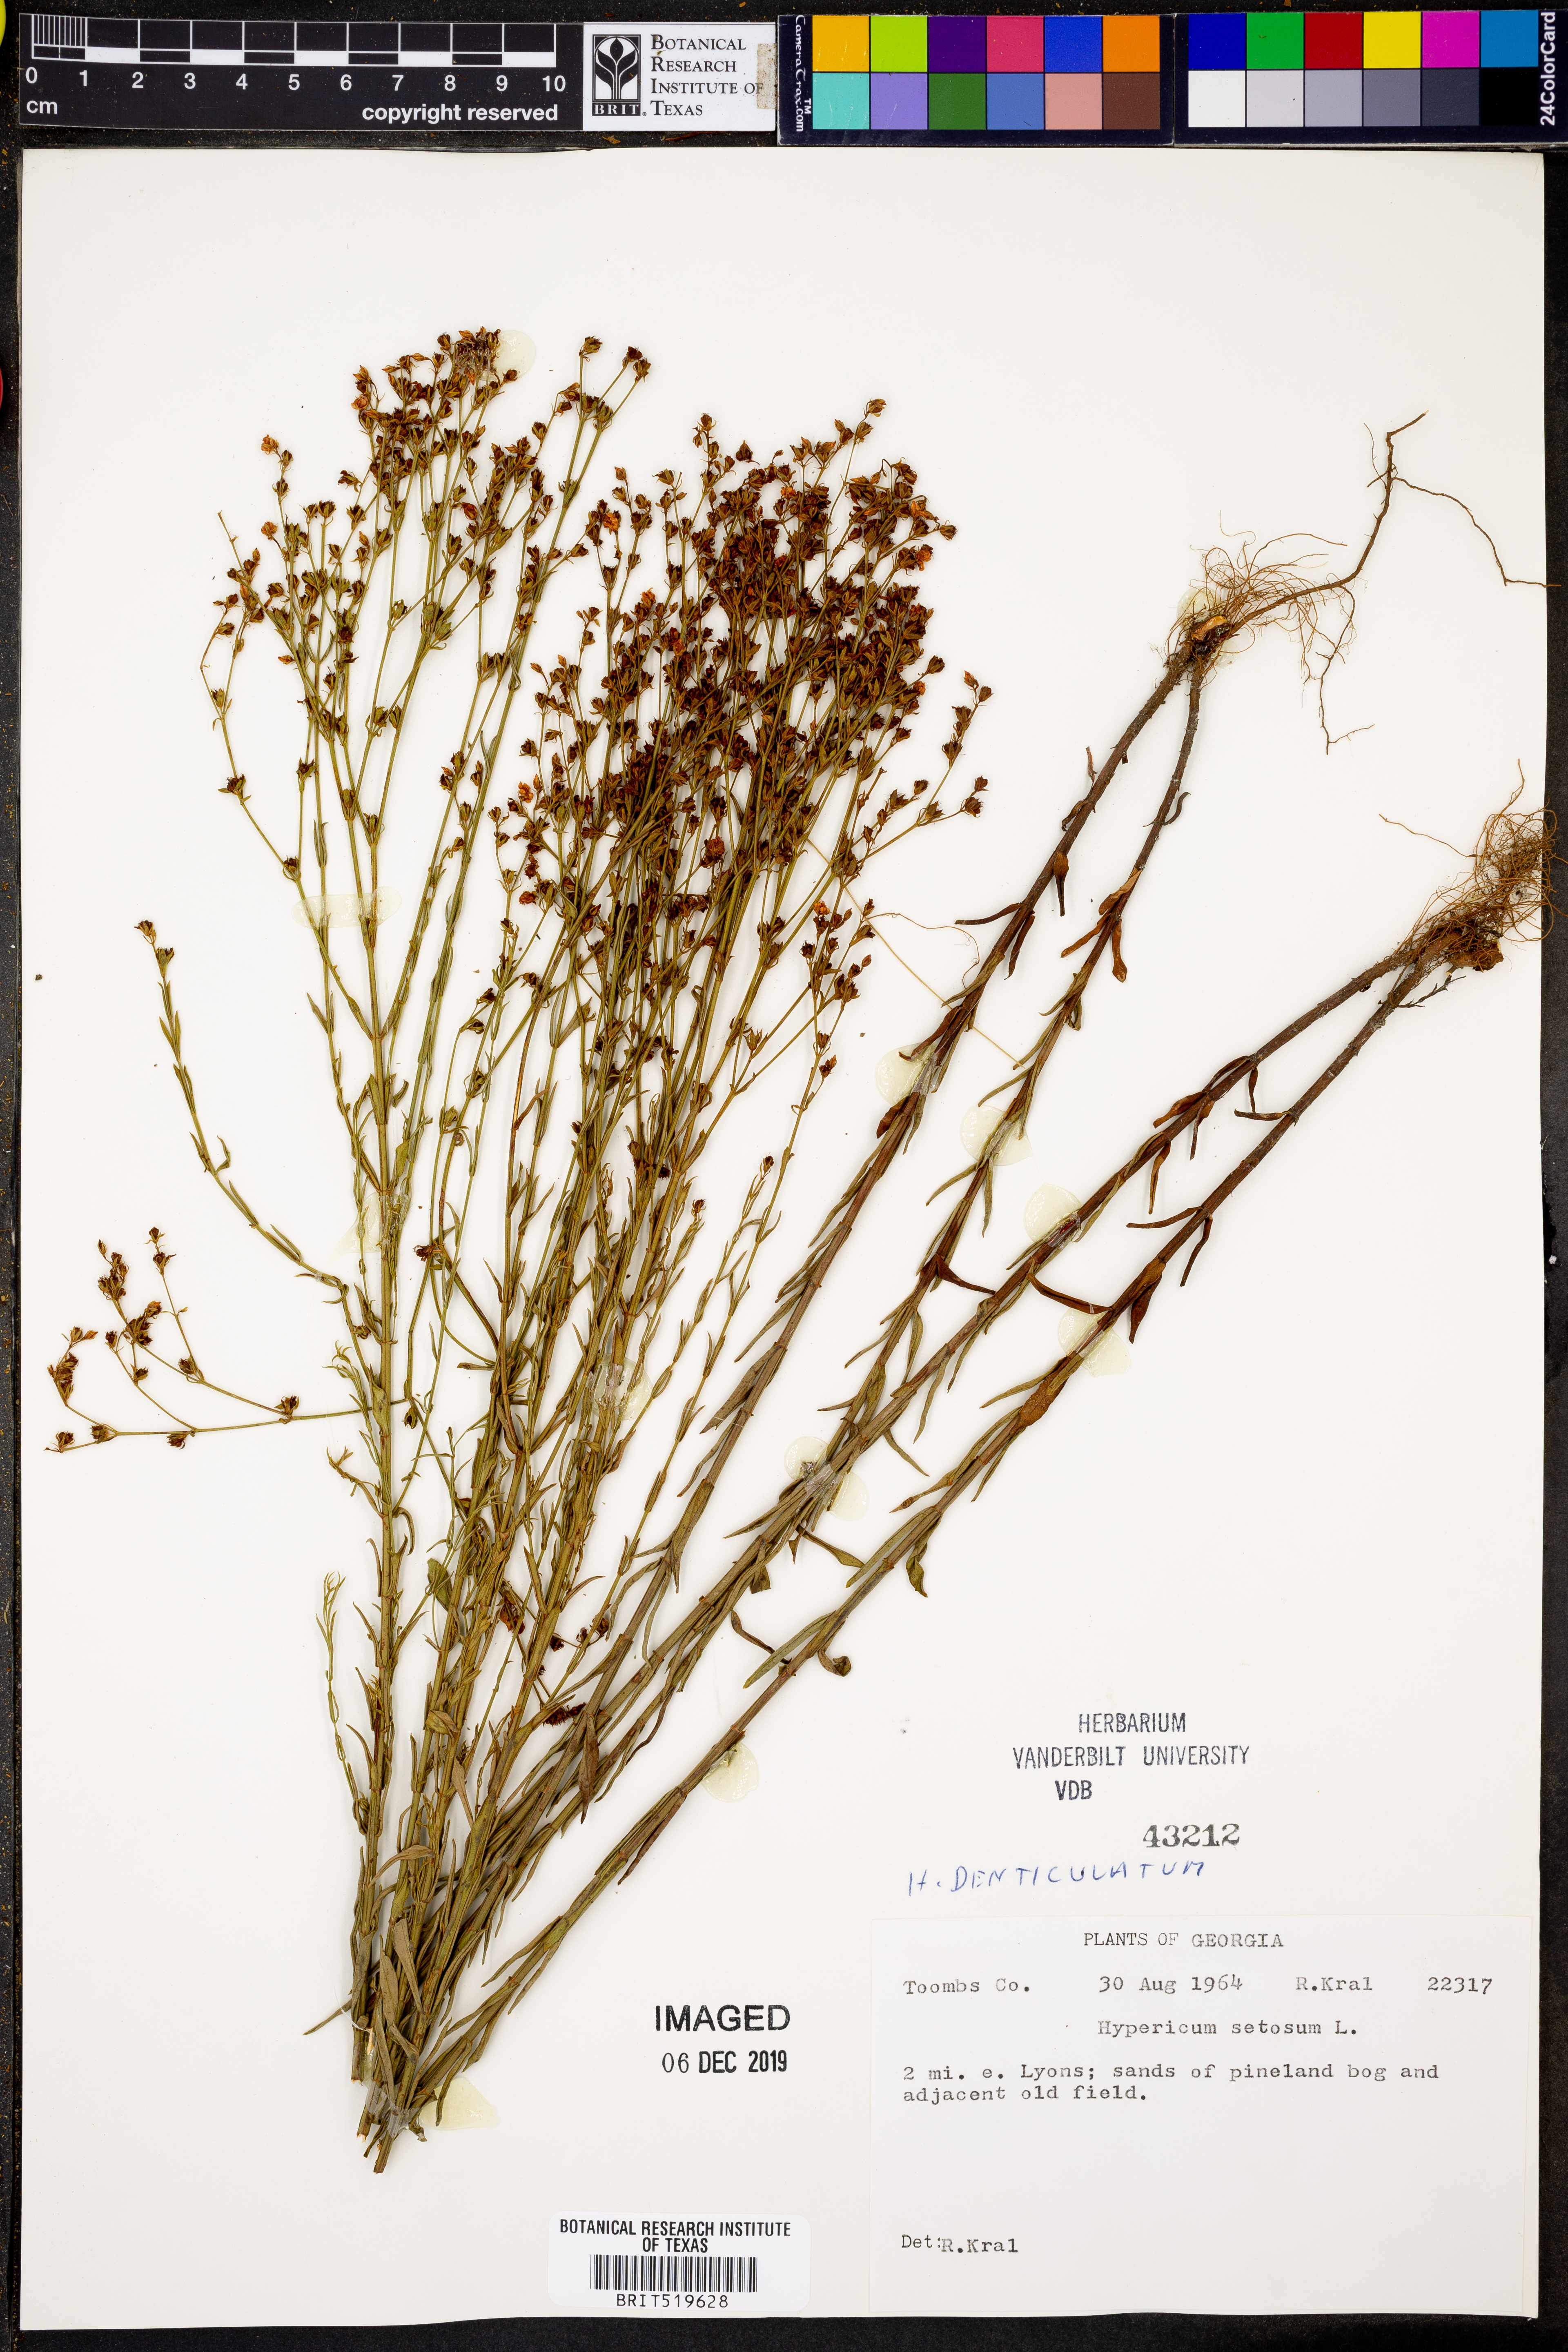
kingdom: Plantae
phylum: Tracheophyta
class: Magnoliopsida
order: Malpighiales
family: Hypericaceae
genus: Hypericum
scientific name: Hypericum setosum
